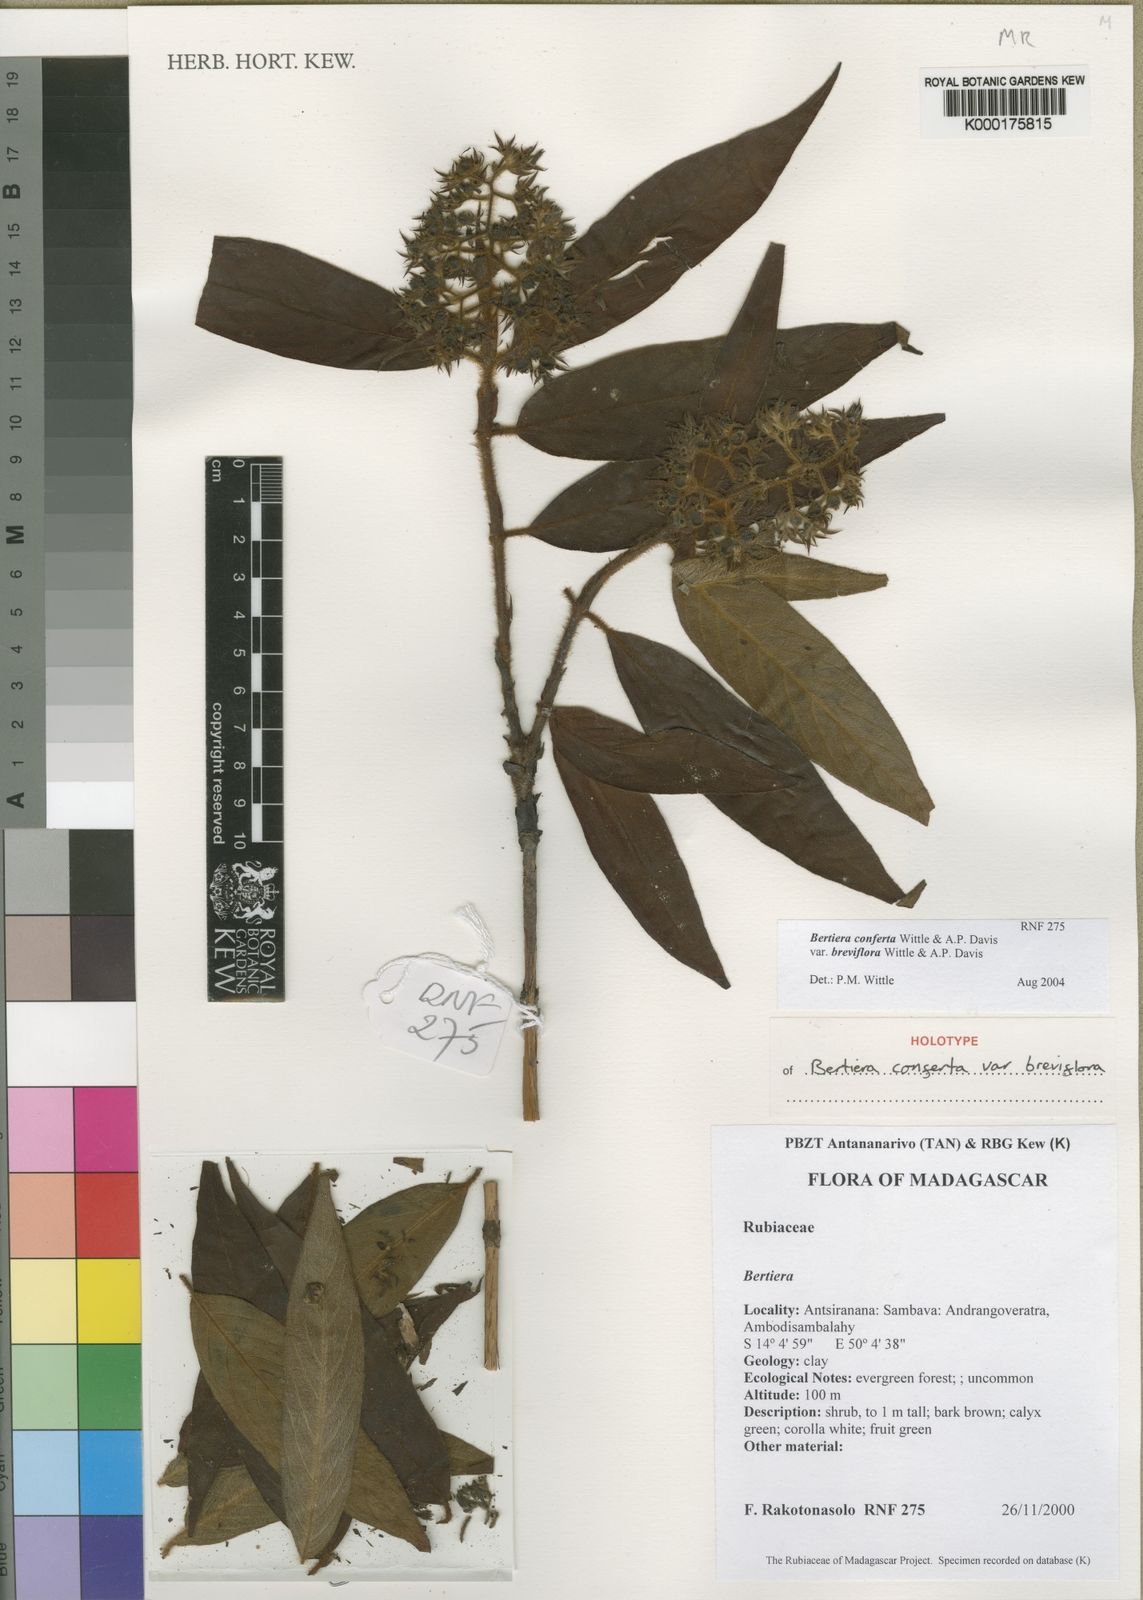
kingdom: Plantae
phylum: Tracheophyta
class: Magnoliopsida
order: Gentianales
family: Rubiaceae
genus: Bertiera
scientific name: Bertiera crinita
